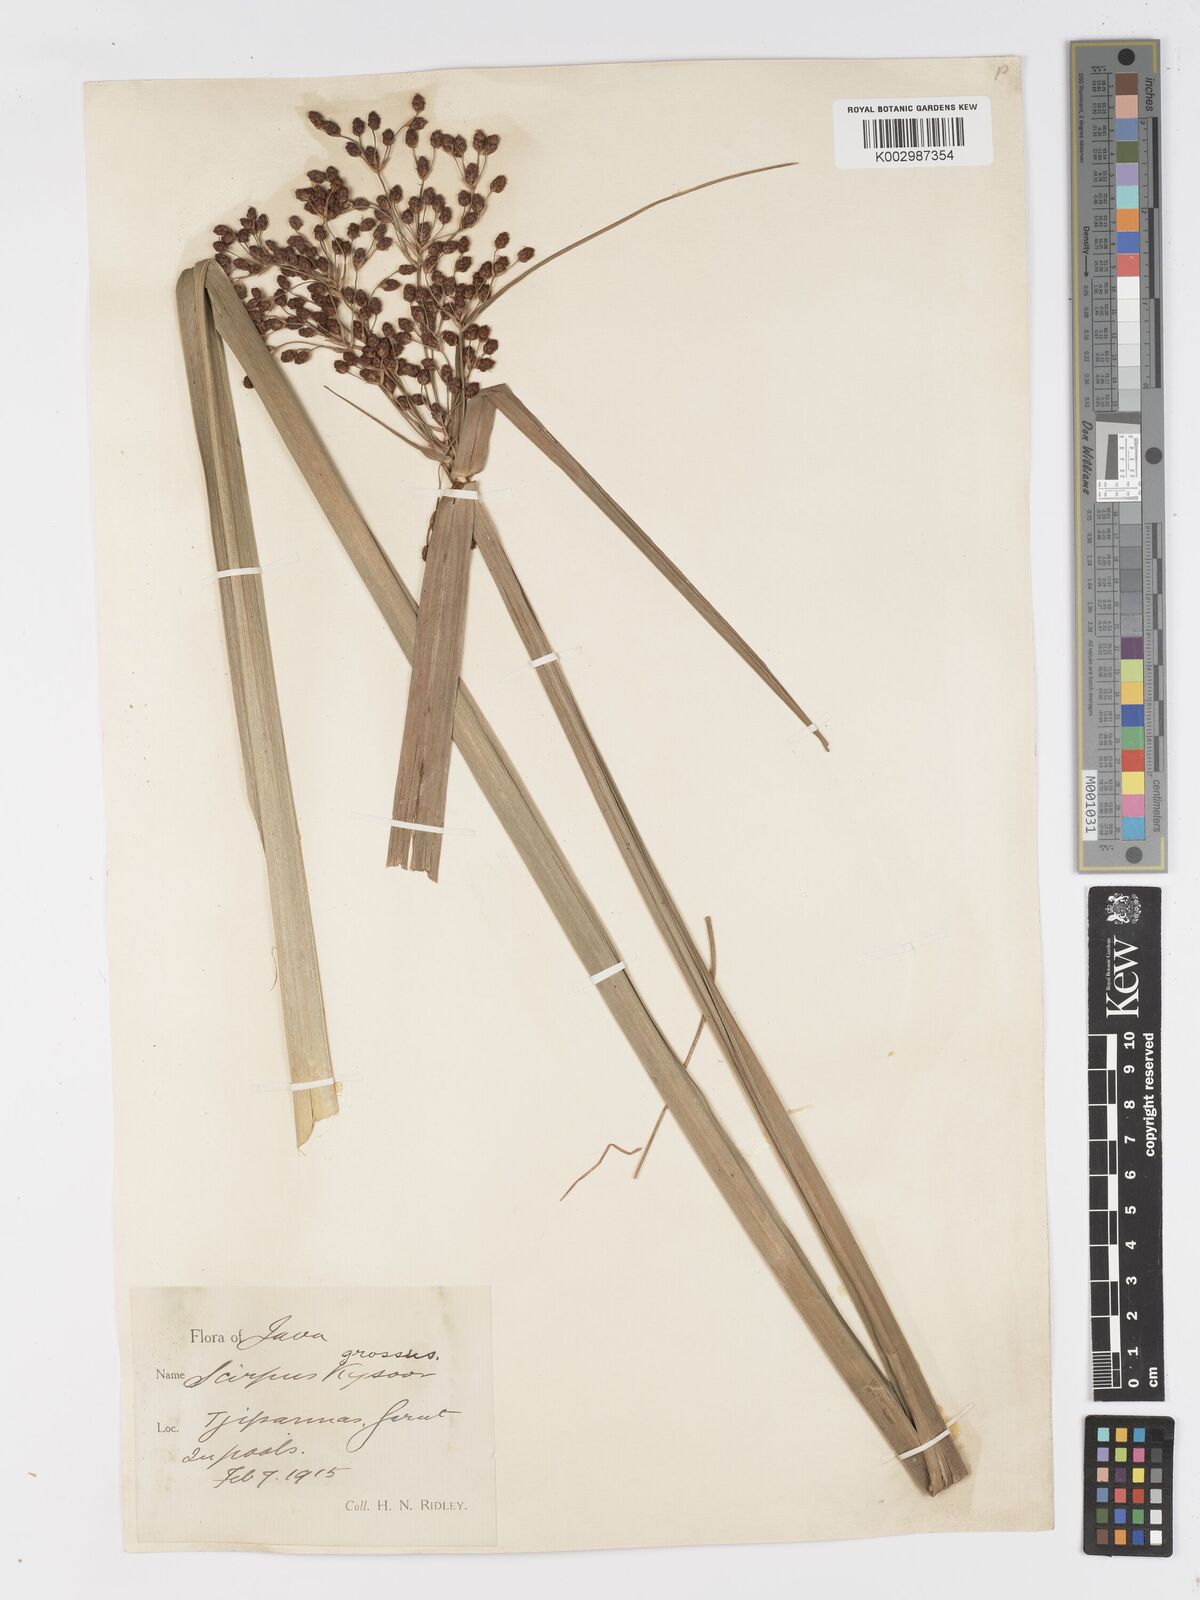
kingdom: Plantae
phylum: Tracheophyta
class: Liliopsida
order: Poales
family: Cyperaceae
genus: Actinoscirpus
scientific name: Actinoscirpus grossus
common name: Giant bur rush
